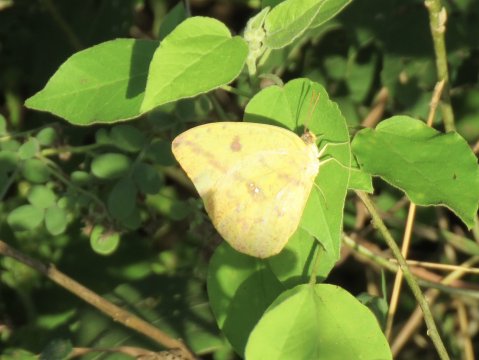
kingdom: Animalia
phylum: Arthropoda
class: Insecta
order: Lepidoptera
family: Pieridae
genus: Phoebis
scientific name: Phoebis agarithe
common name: Large Orange Sulphur
